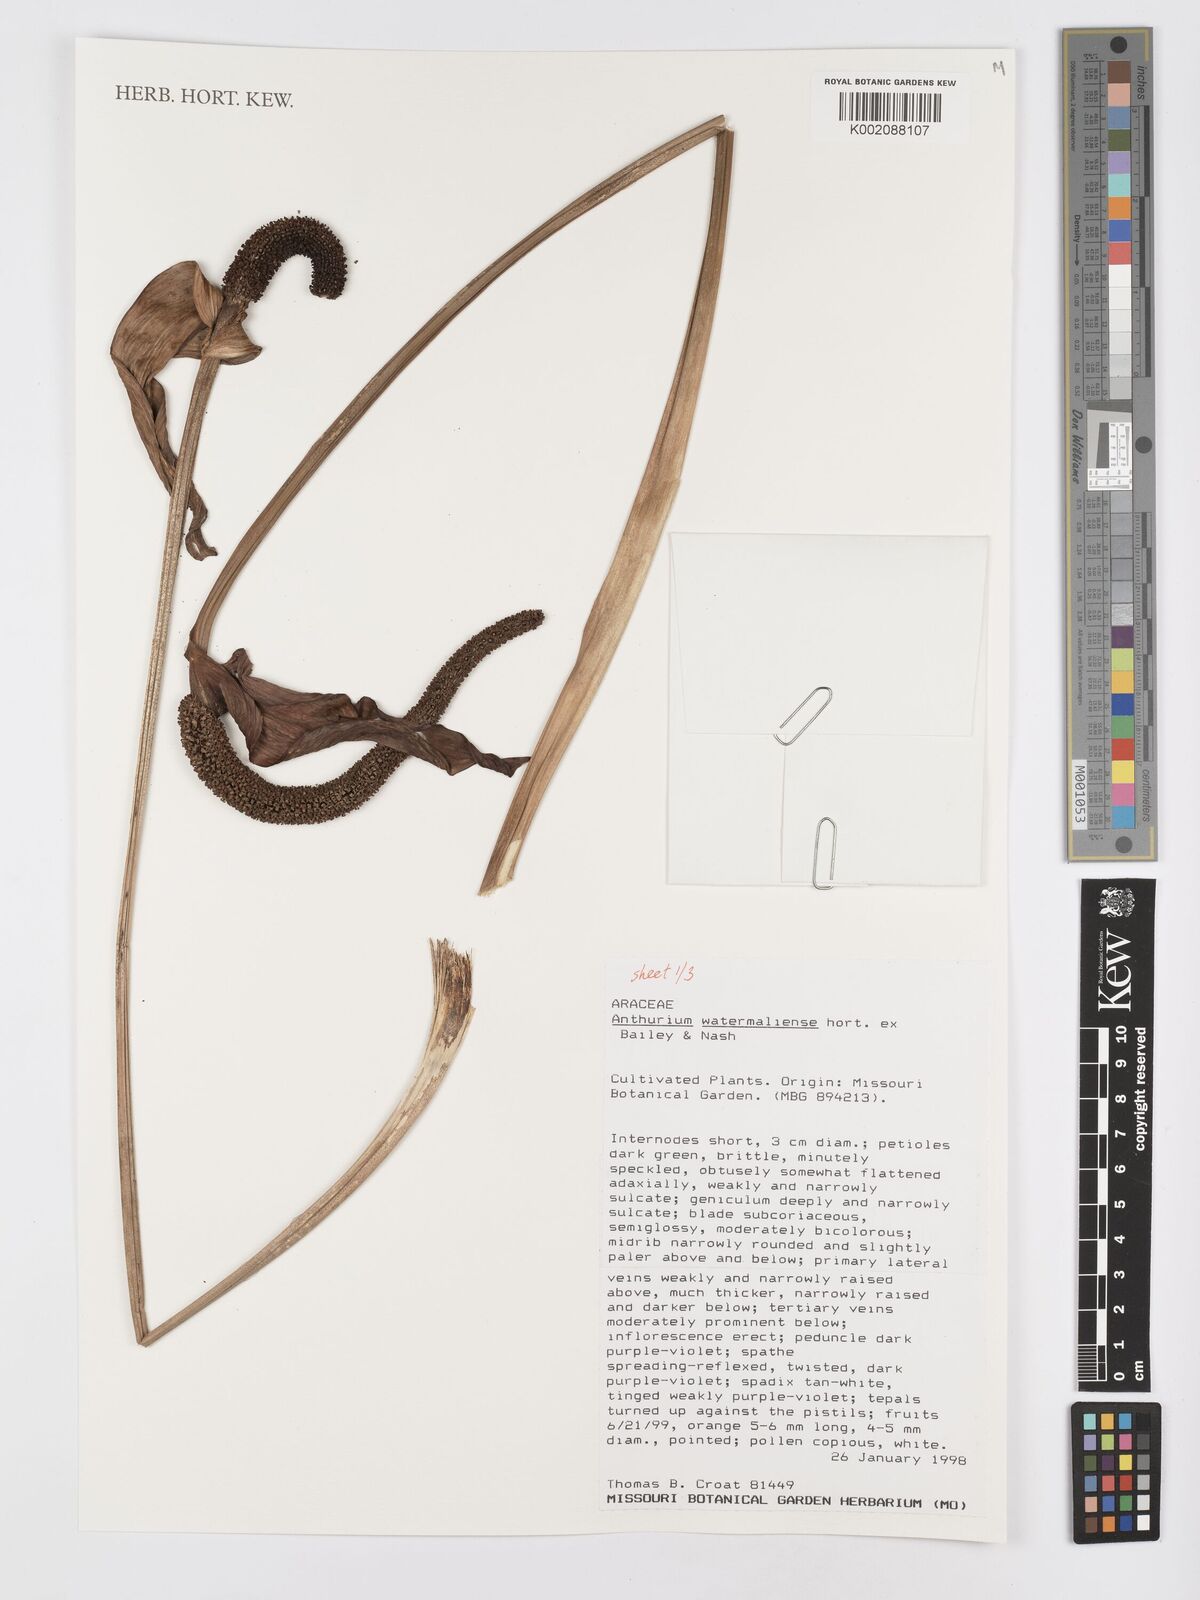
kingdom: Plantae
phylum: Tracheophyta
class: Liliopsida
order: Alismatales
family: Araceae
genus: Anthurium
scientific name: Anthurium watermaliense
